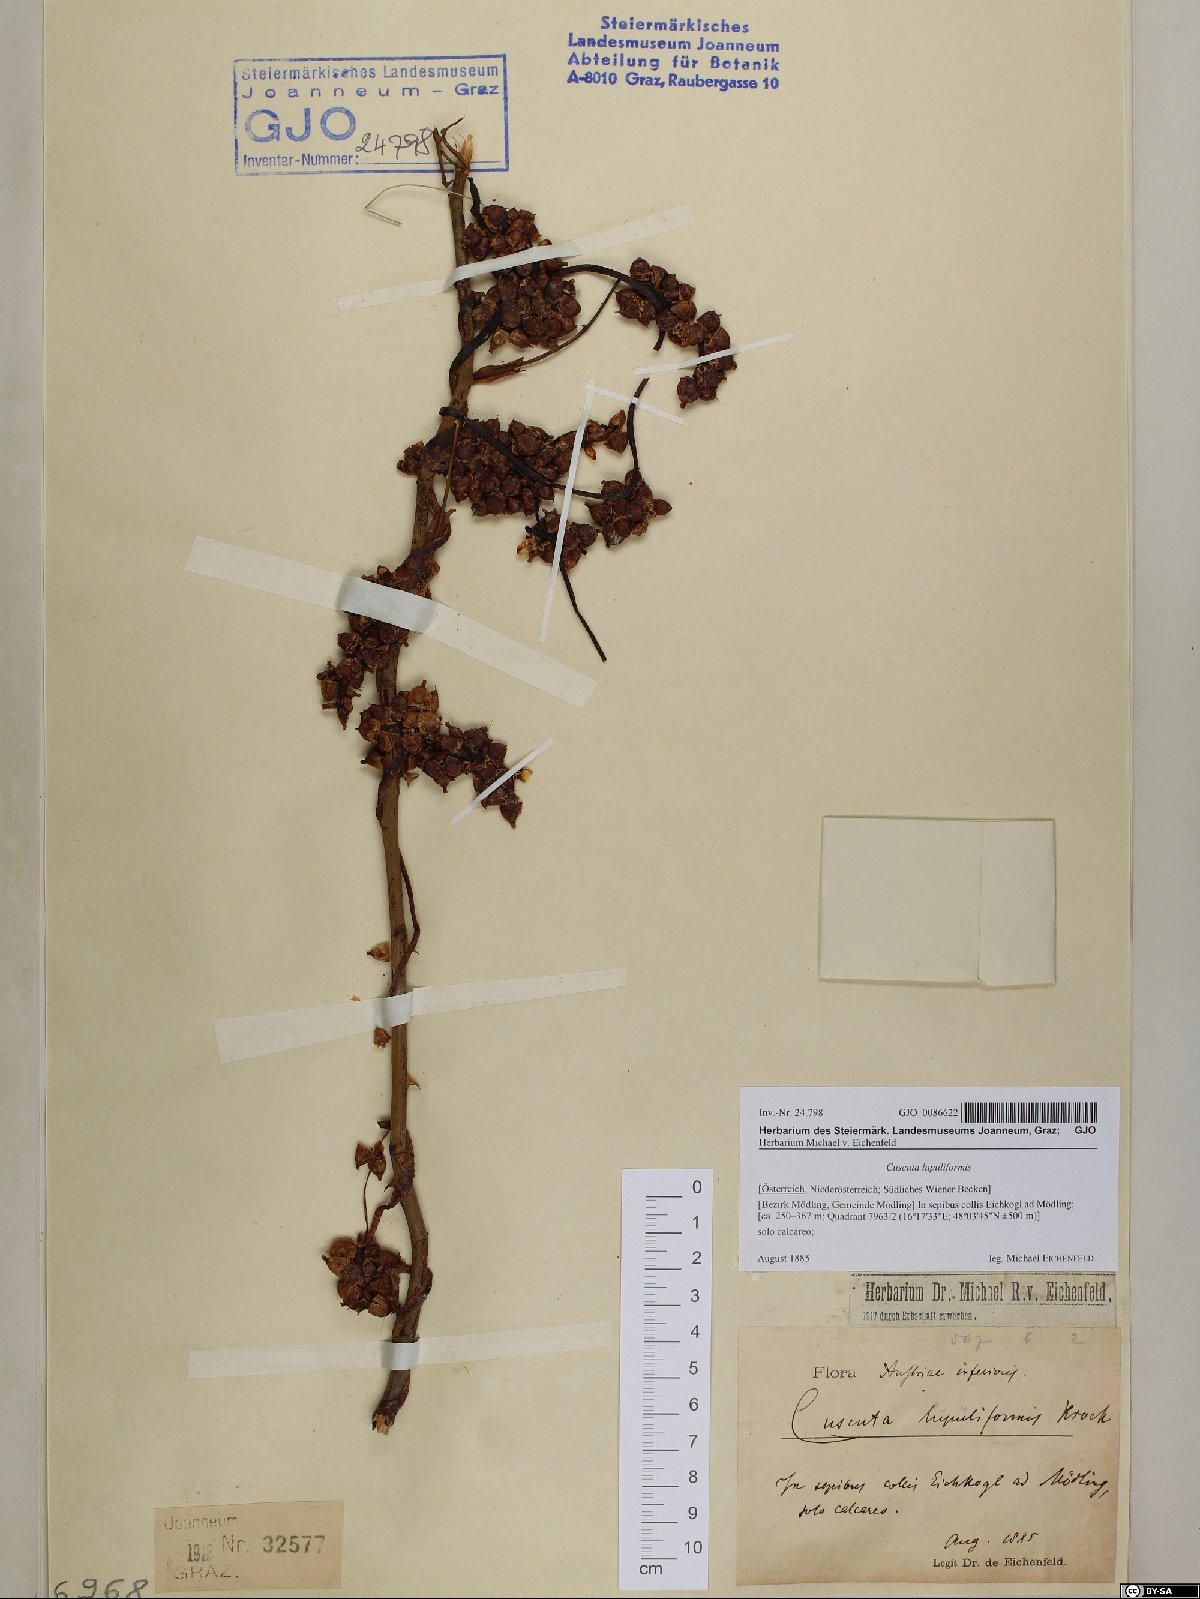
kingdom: Plantae
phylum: Tracheophyta
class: Magnoliopsida
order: Solanales
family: Convolvulaceae
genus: Cuscuta
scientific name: Cuscuta lupuliformis
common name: Hop dodder
